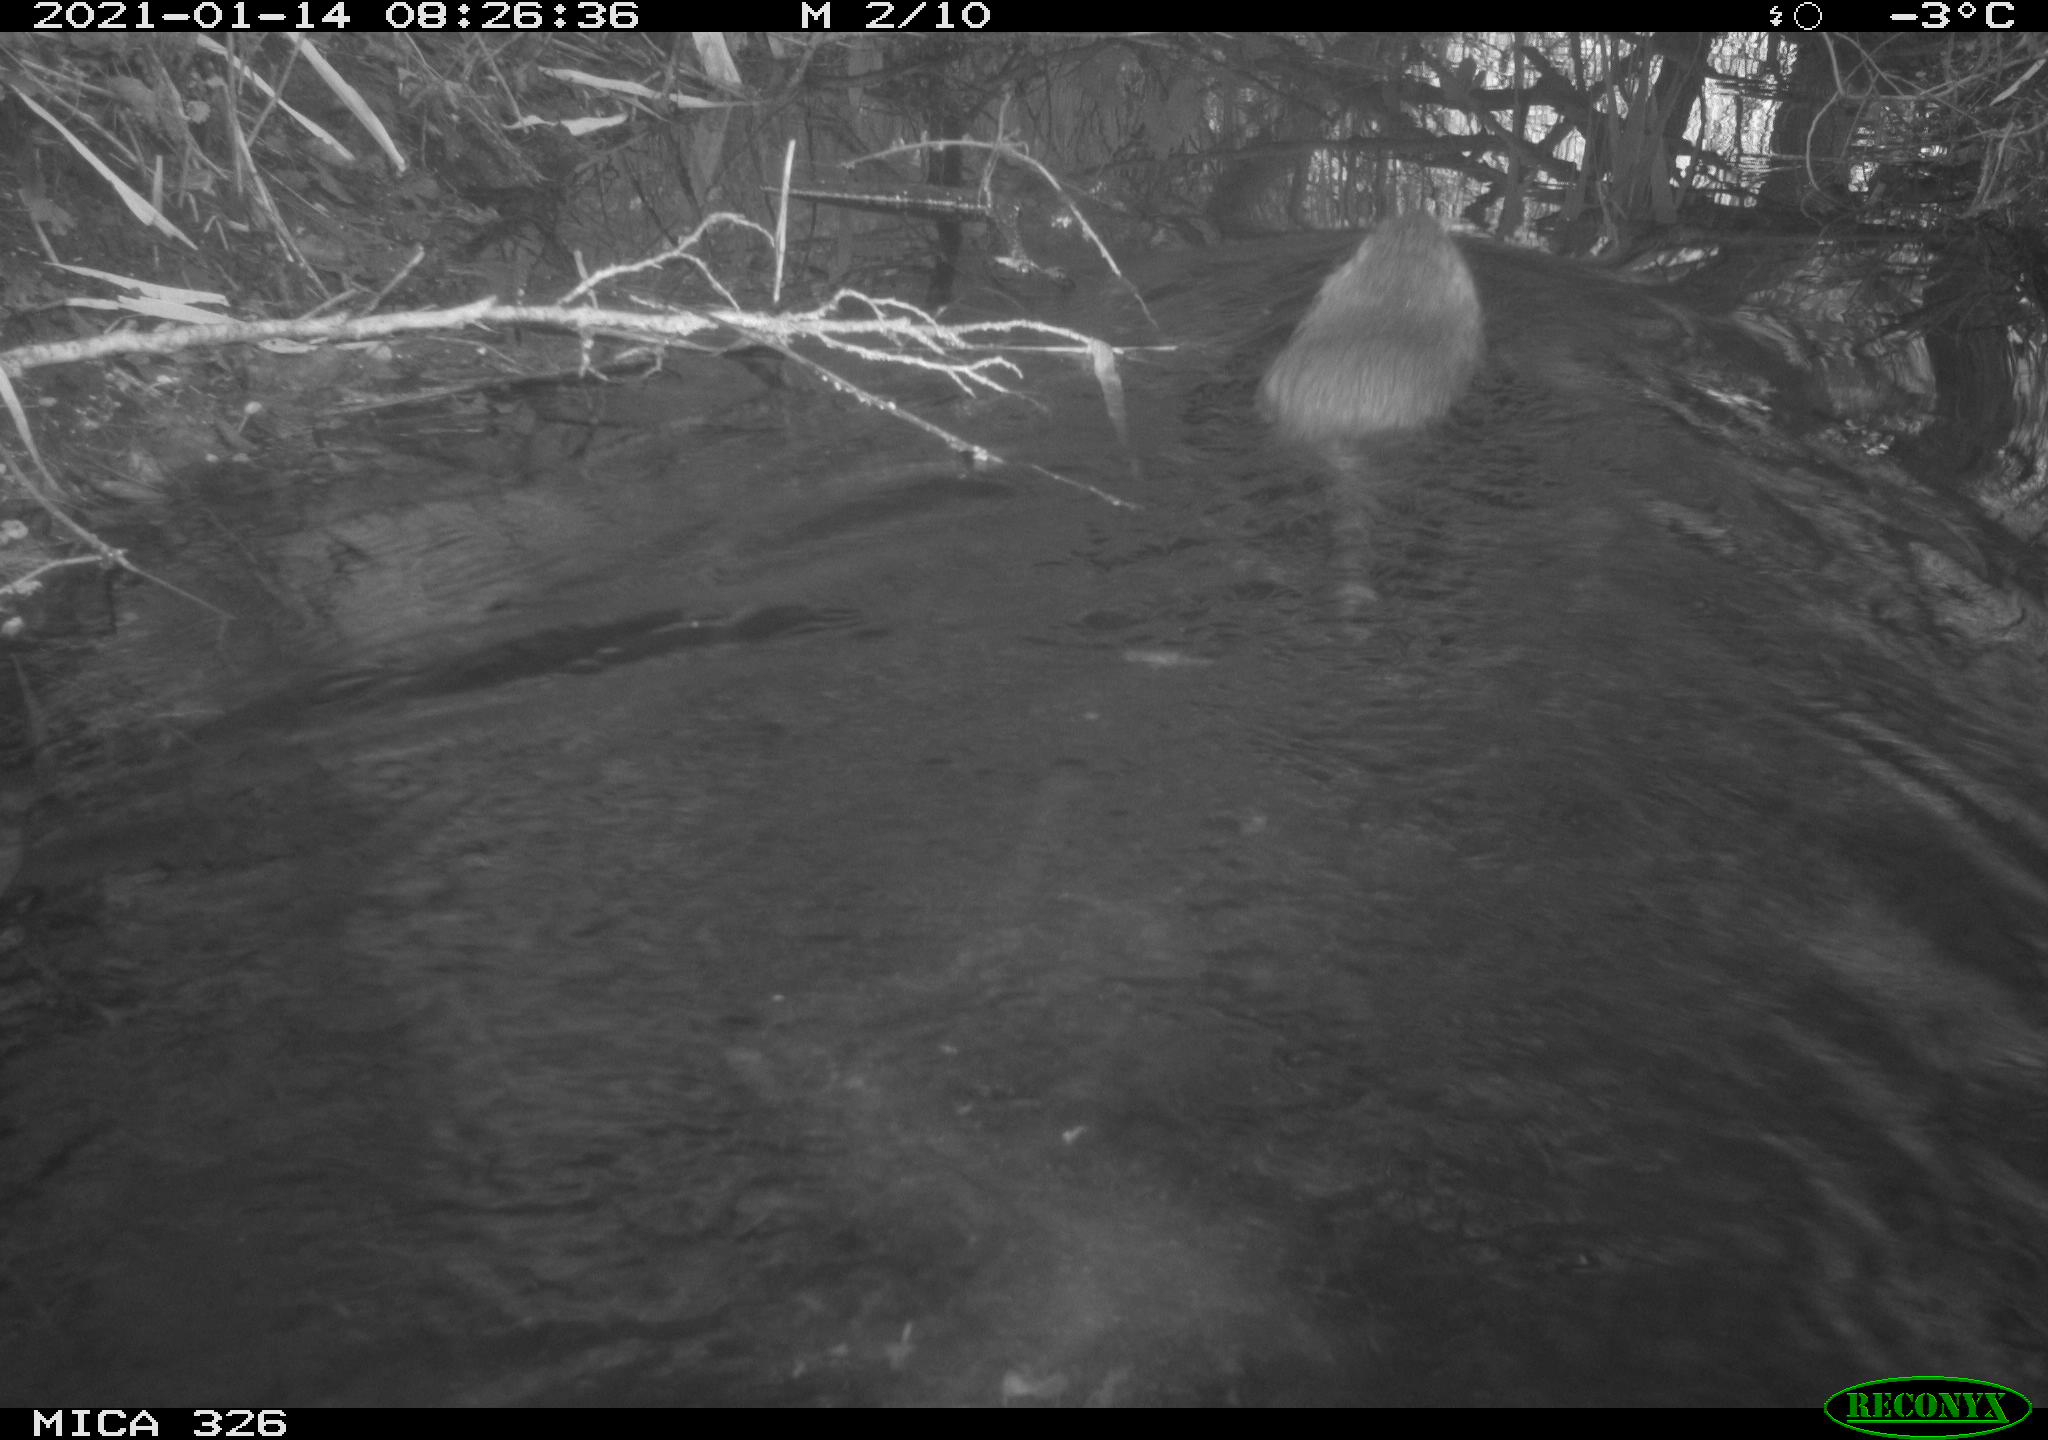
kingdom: Animalia
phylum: Chordata
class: Mammalia
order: Rodentia
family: Myocastoridae
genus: Myocastor
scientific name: Myocastor coypus
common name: Coypu
